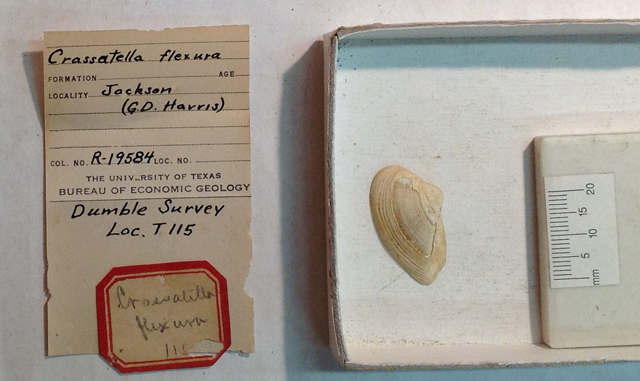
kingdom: Animalia
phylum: Mollusca
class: Bivalvia
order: Carditida
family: Crassatellidae
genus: Crassatella
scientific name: Crassatella flexura
